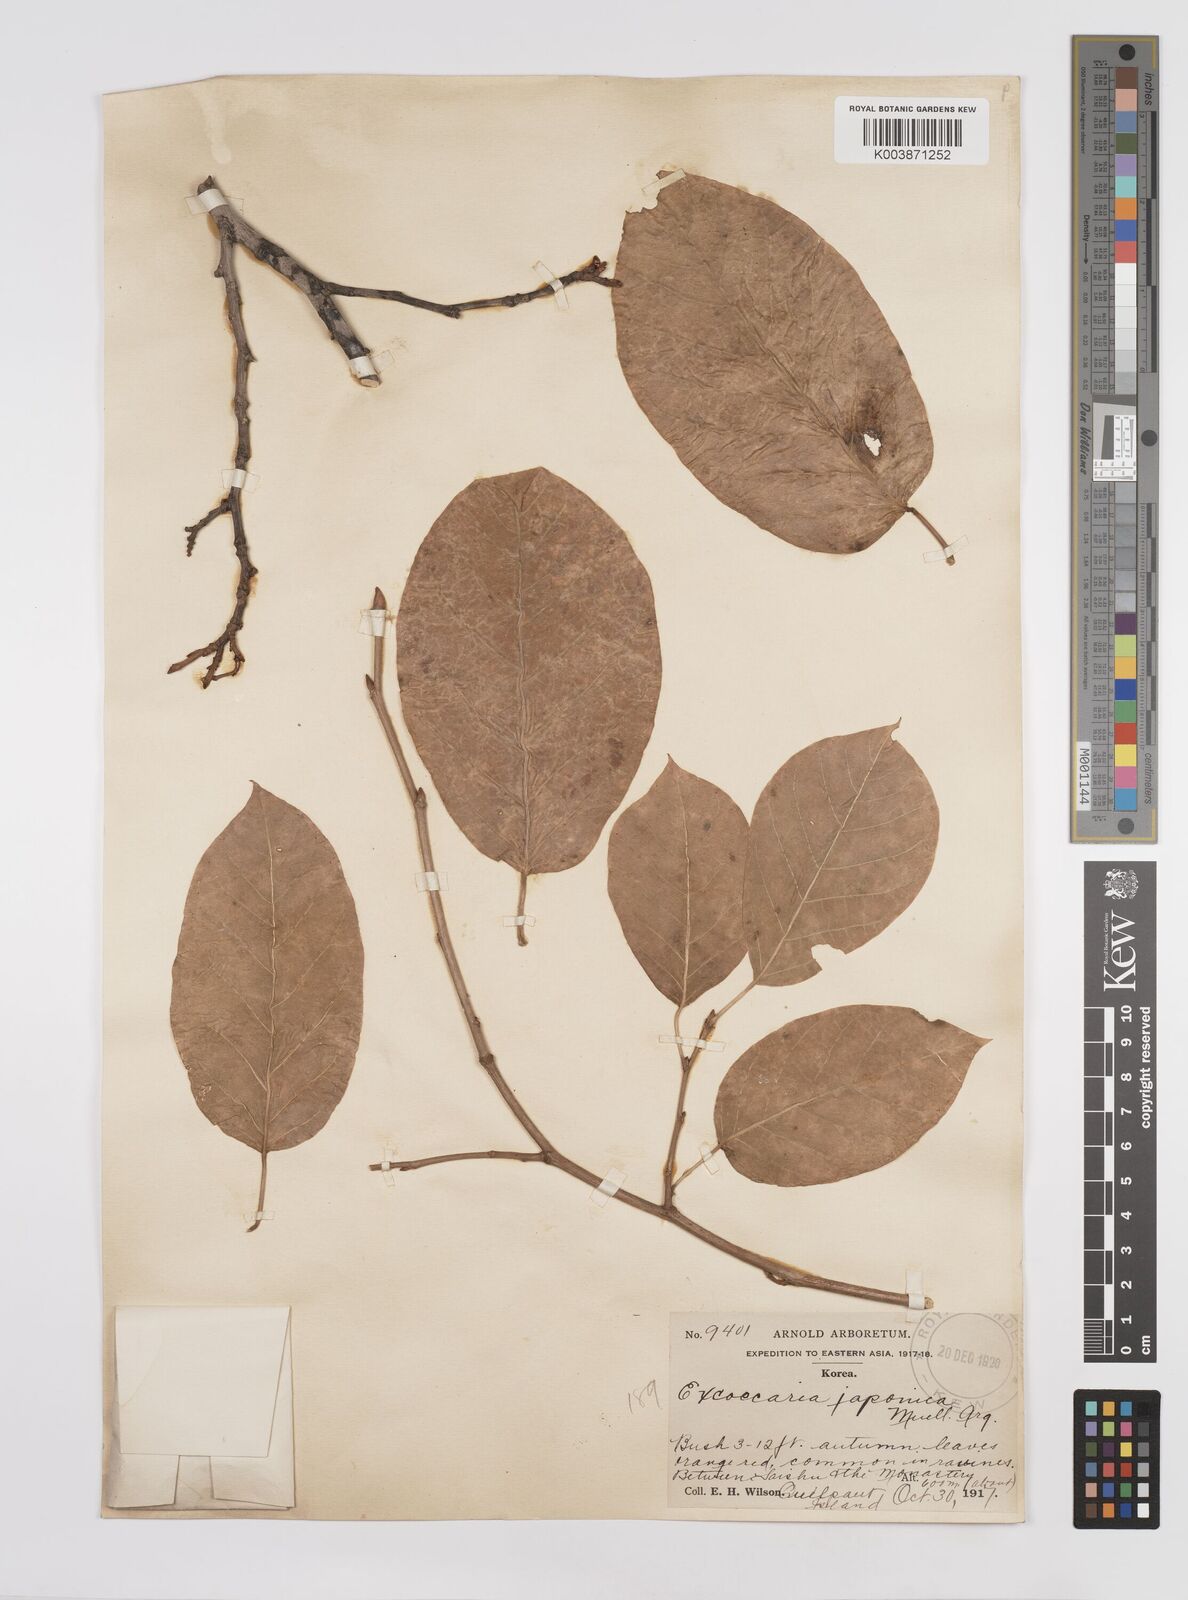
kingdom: Plantae
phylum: Tracheophyta
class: Magnoliopsida
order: Malpighiales
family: Euphorbiaceae
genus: Neoshirakia
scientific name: Neoshirakia japonica
